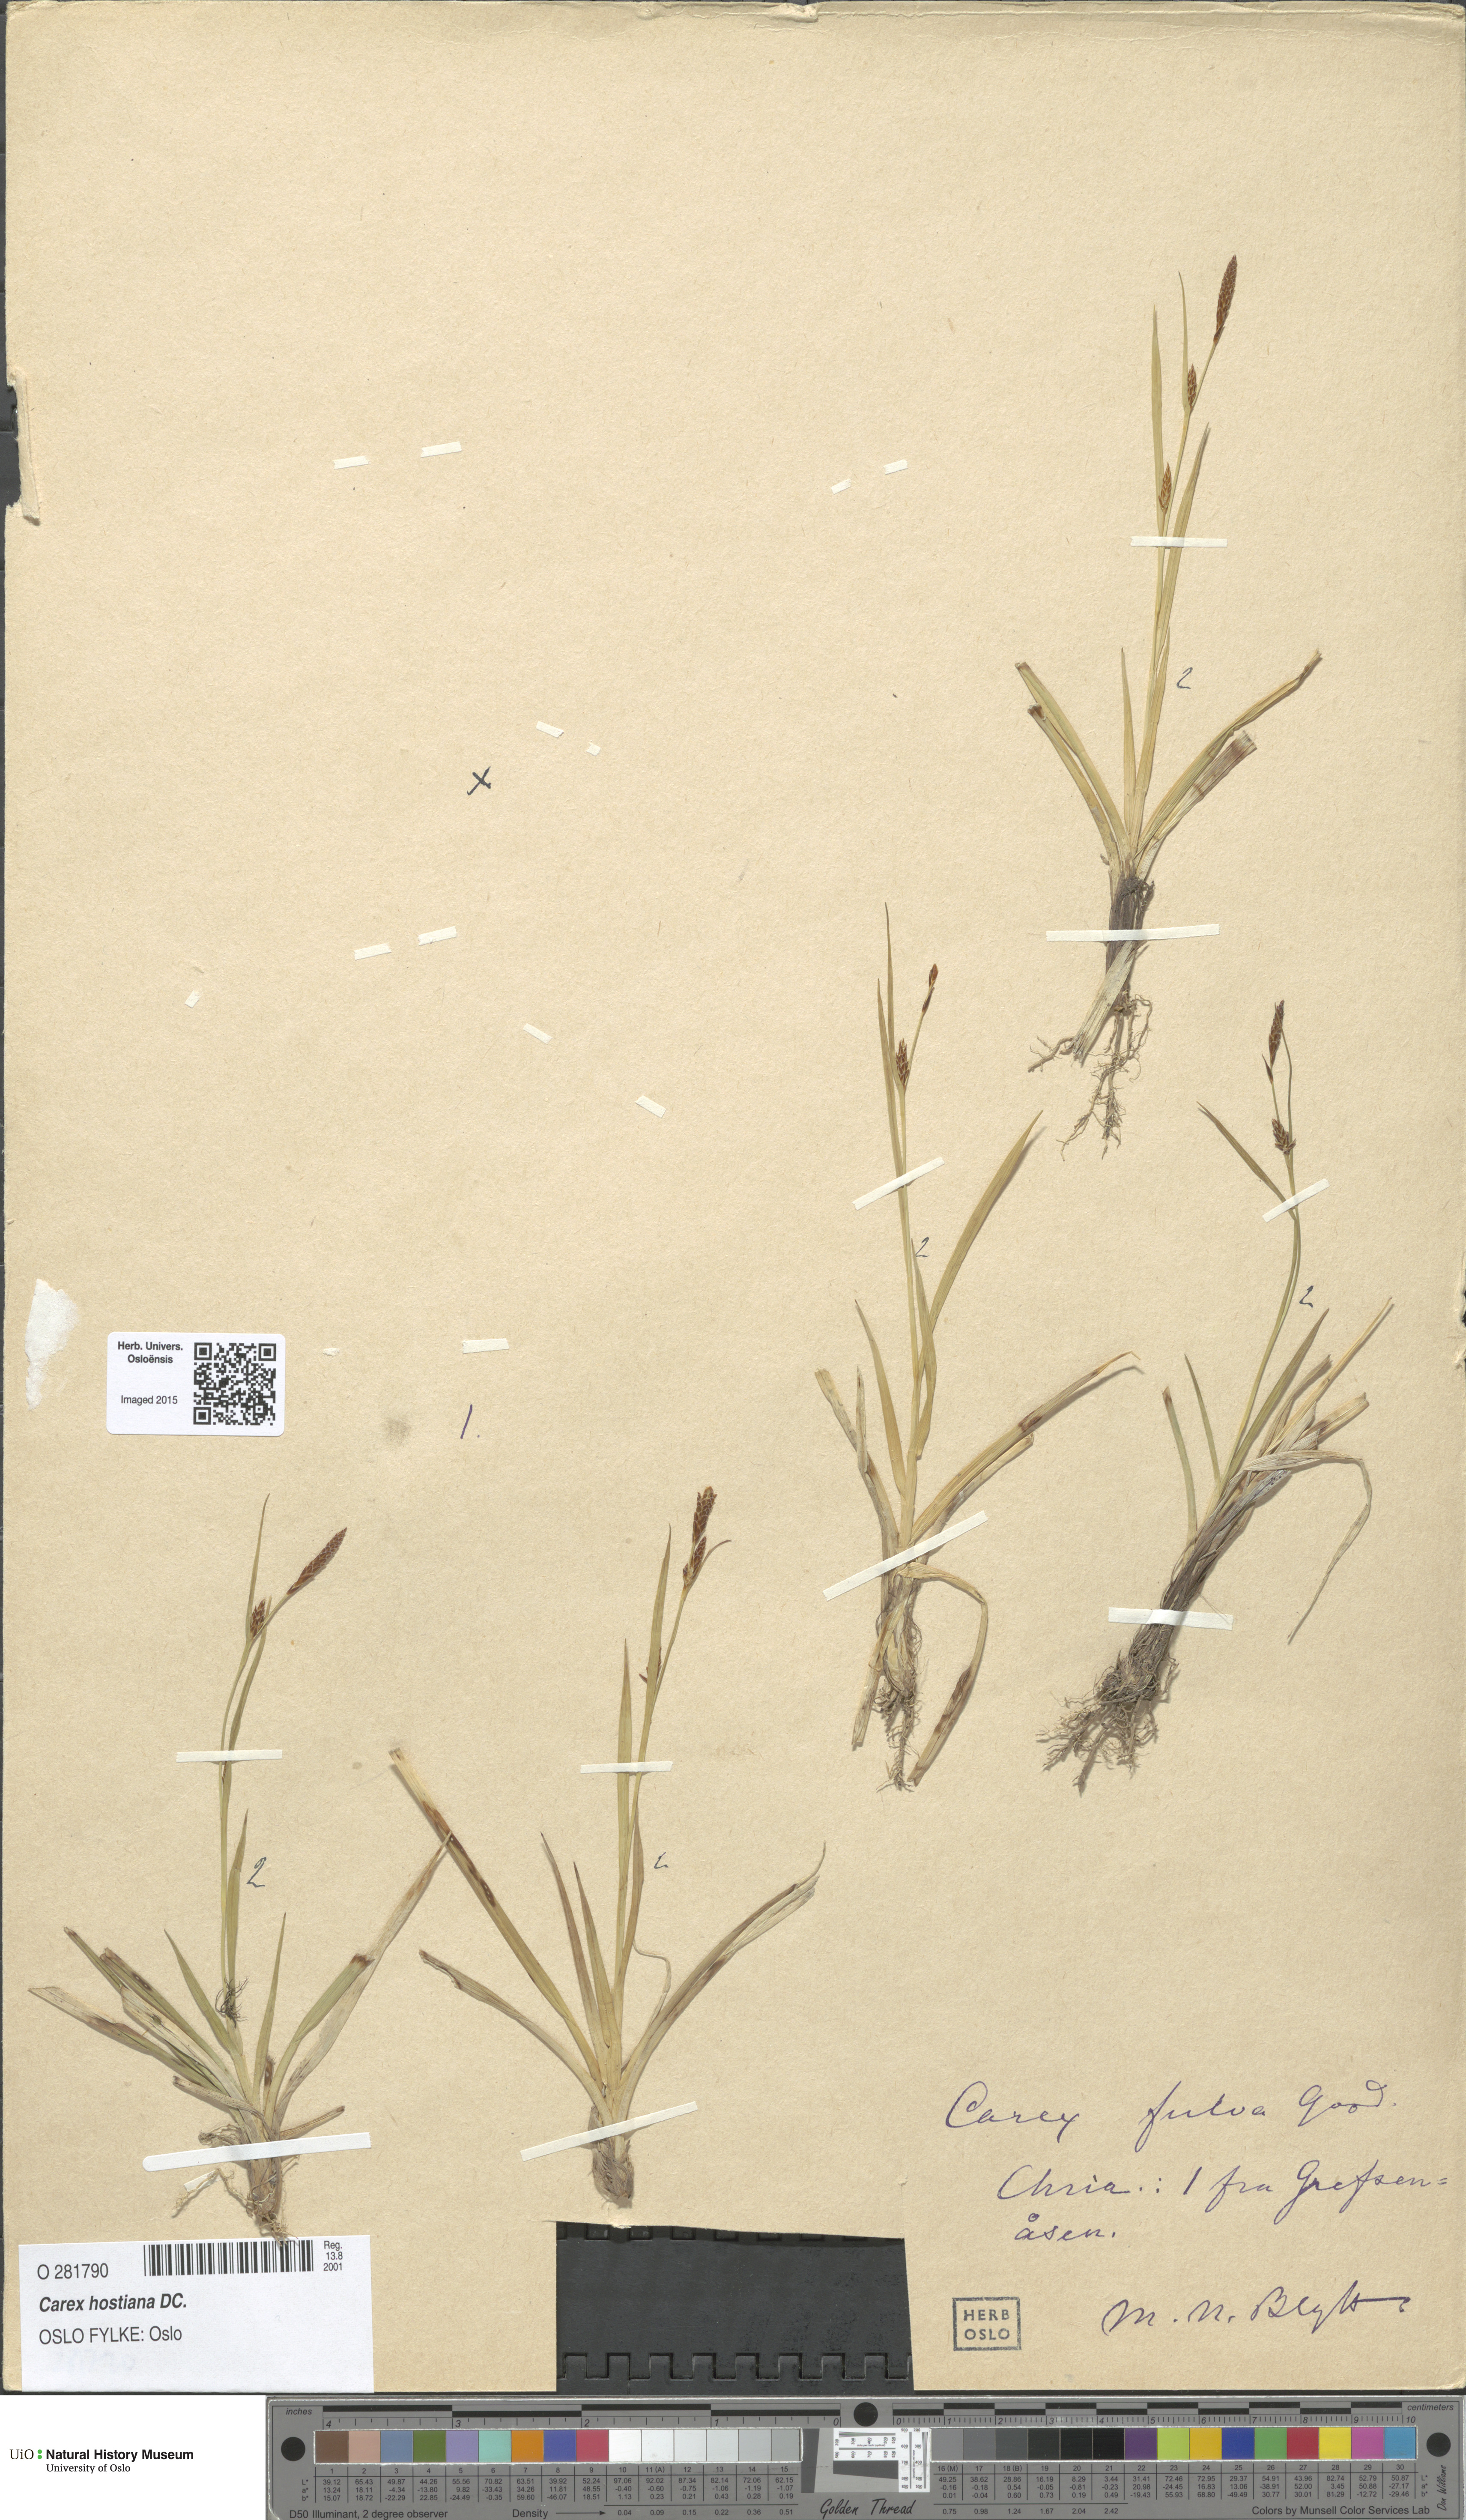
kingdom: Plantae
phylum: Tracheophyta
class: Liliopsida
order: Poales
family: Cyperaceae
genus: Carex
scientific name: Carex hostiana
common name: Tawny sedge
